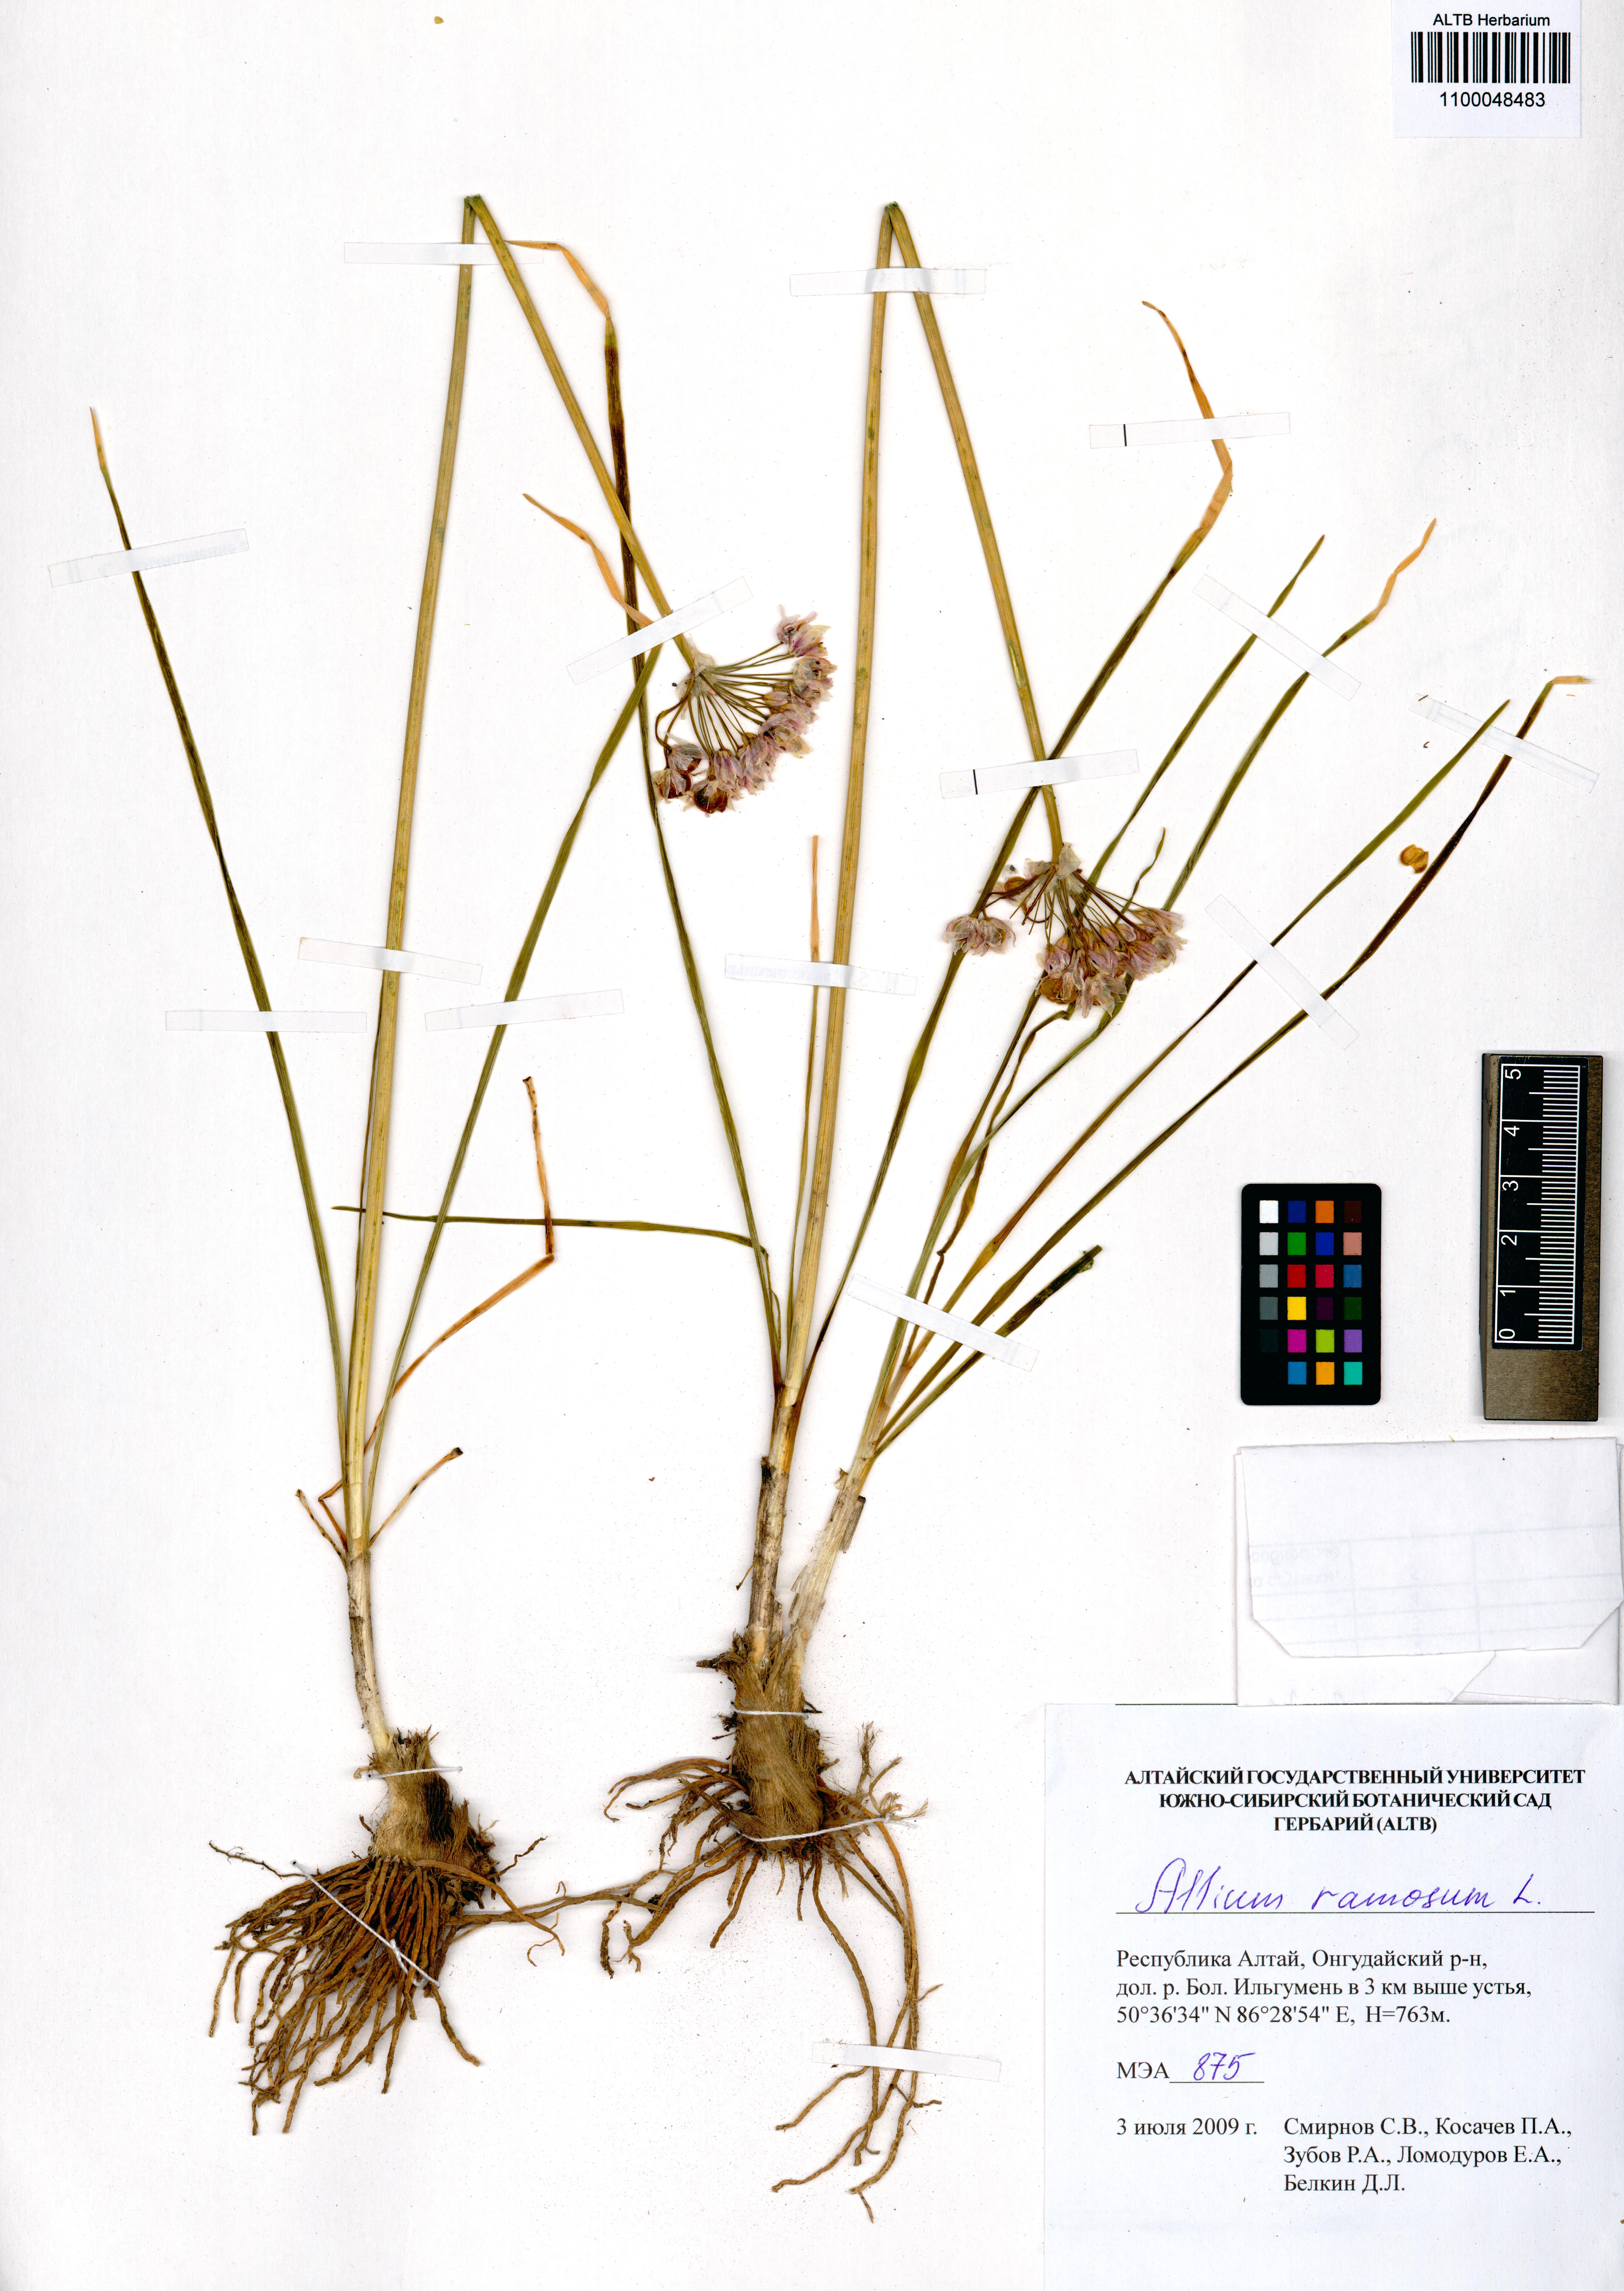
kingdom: Plantae
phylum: Tracheophyta
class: Liliopsida
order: Asparagales
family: Amaryllidaceae
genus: Allium
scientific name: Allium ramosum
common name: Fragrant garlic
